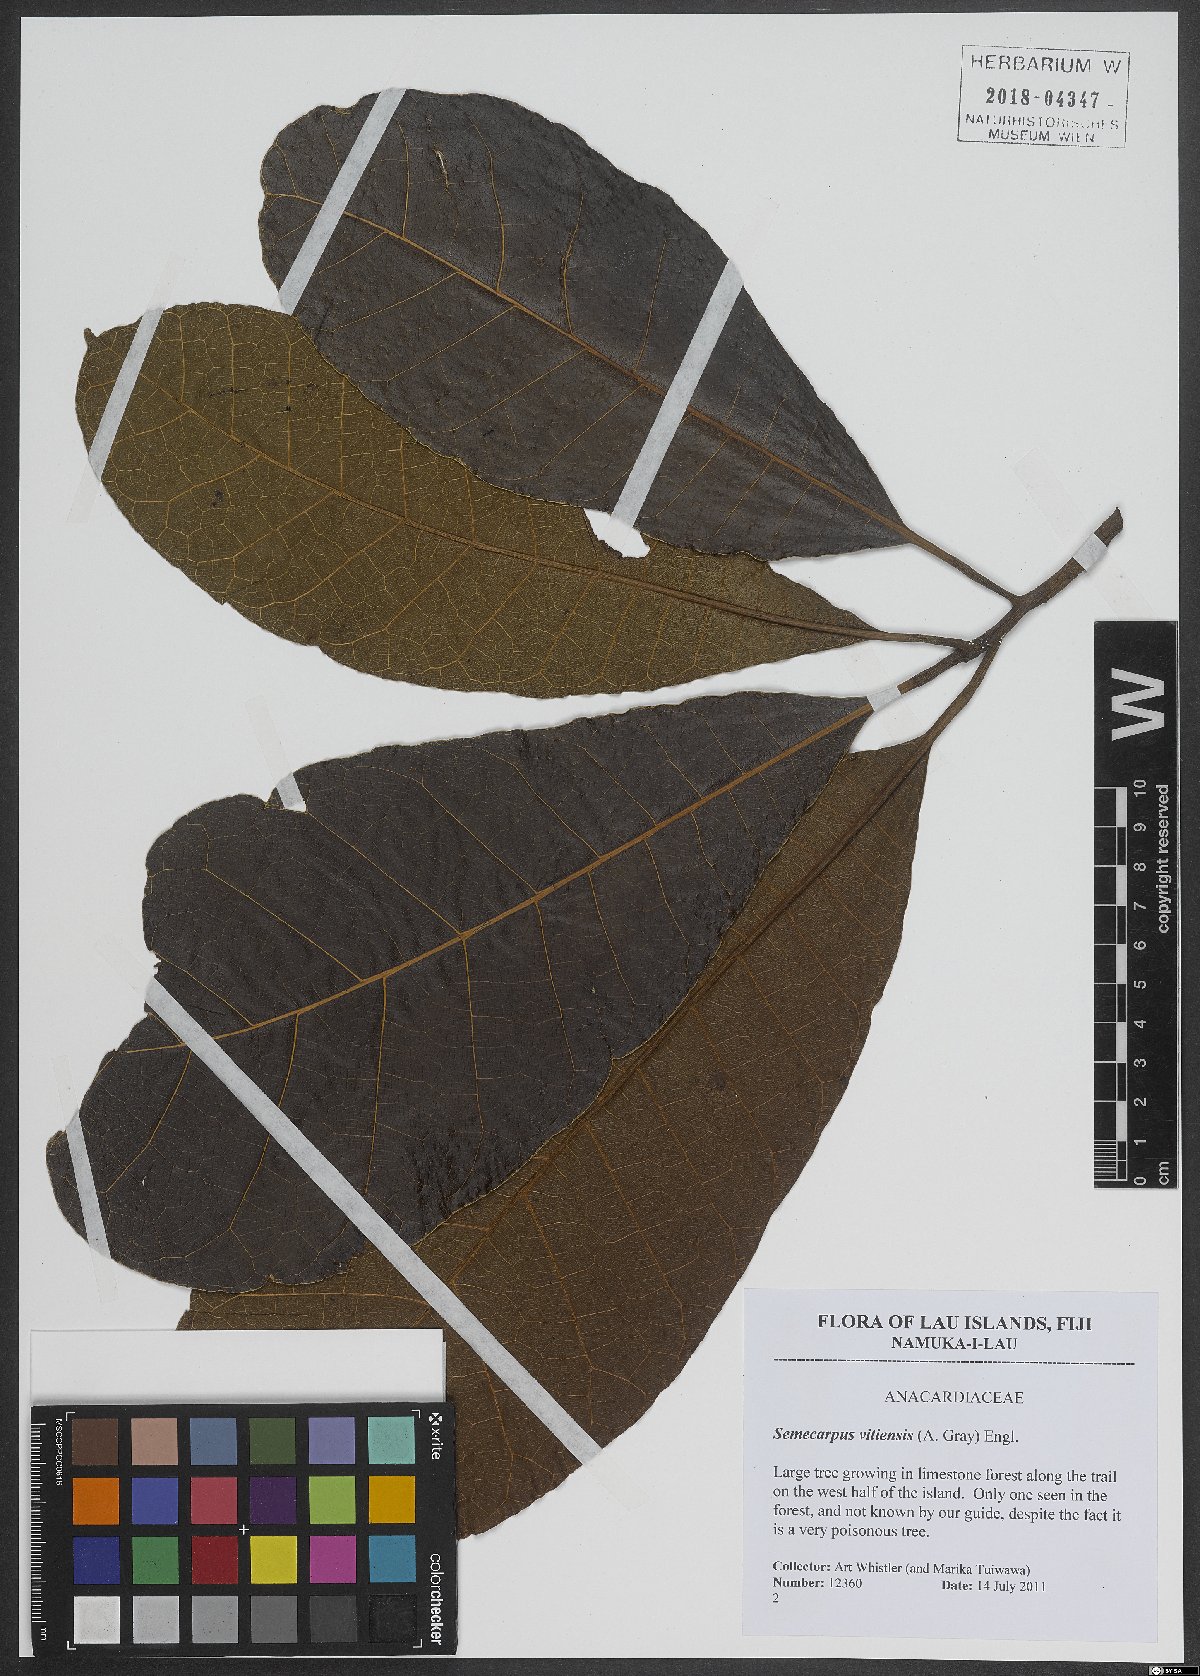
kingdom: Plantae
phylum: Tracheophyta
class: Magnoliopsida
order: Sapindales
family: Anacardiaceae
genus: Semecarpus
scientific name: Semecarpus vitiensis
